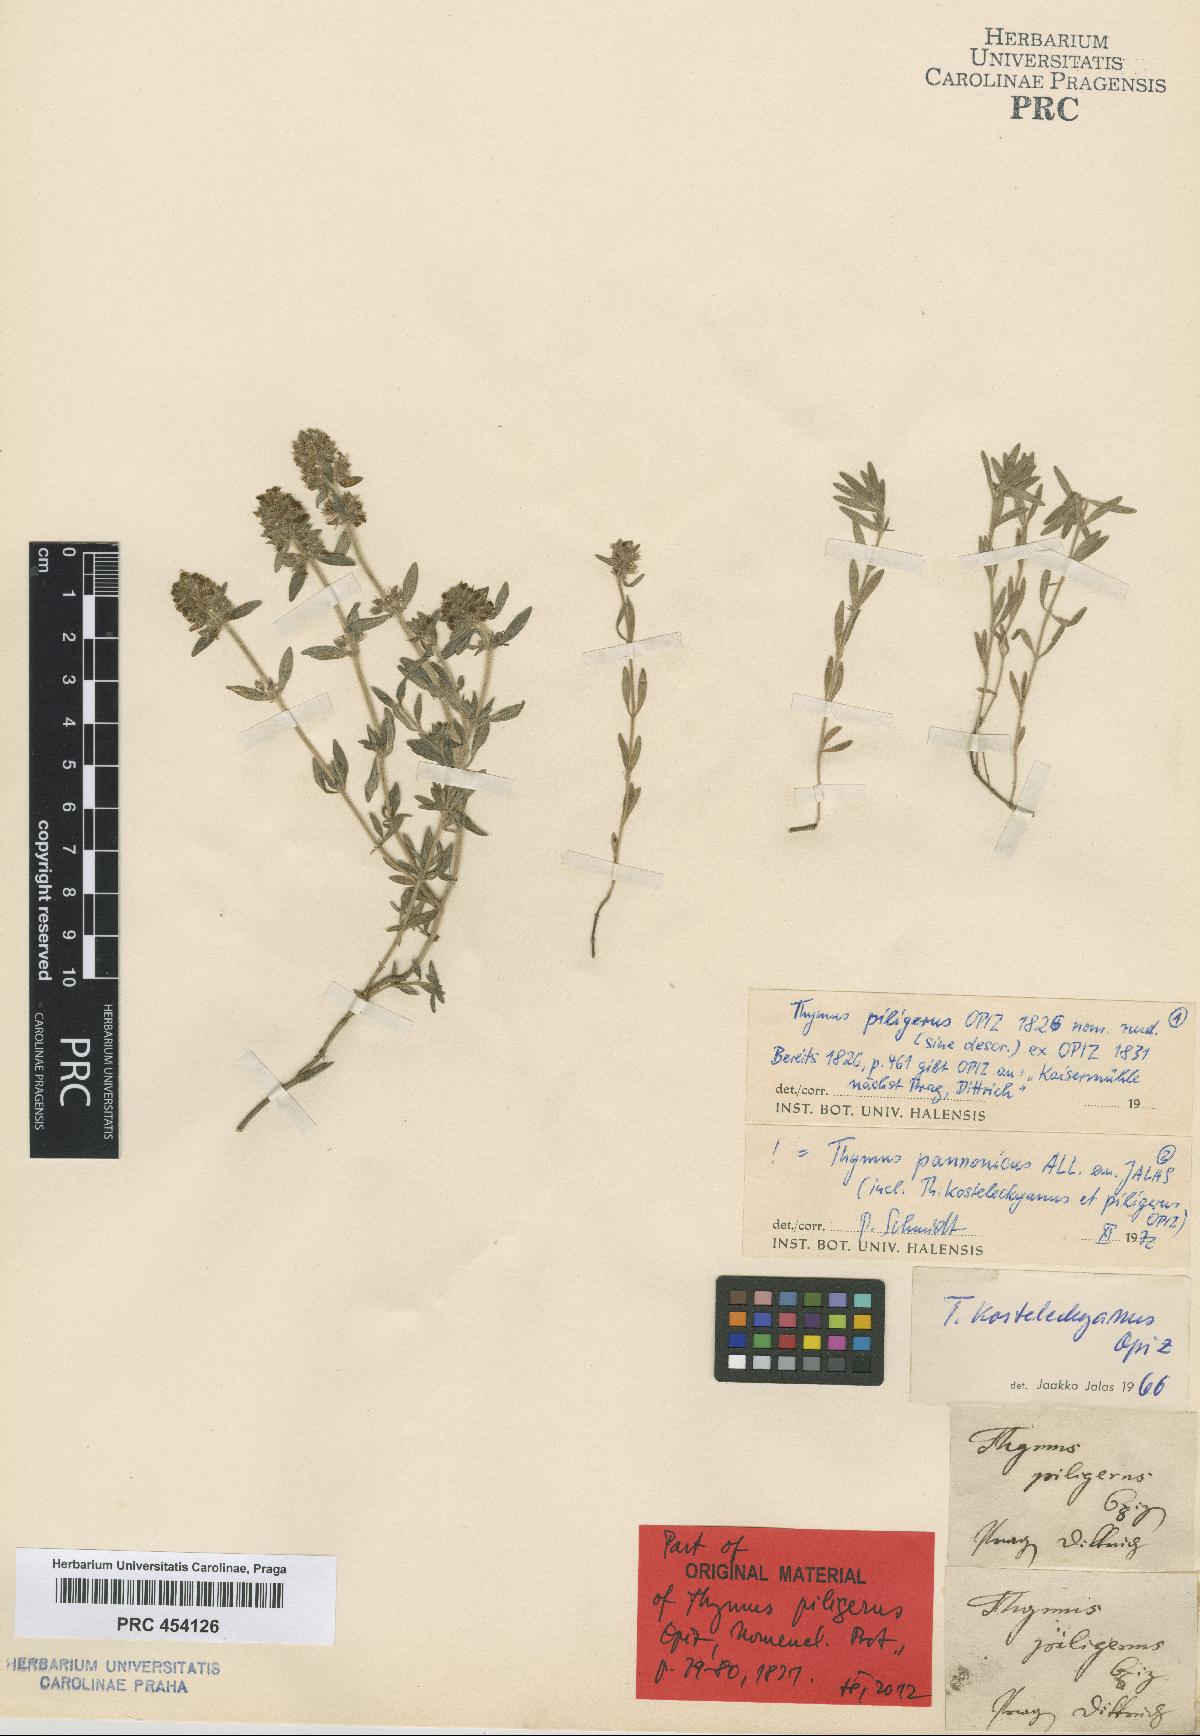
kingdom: Plantae
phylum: Tracheophyta
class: Magnoliopsida
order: Lamiales
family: Lamiaceae
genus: Thymus
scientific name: Thymus odoratissimus
